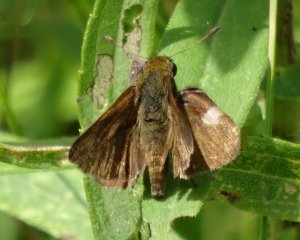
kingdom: Animalia
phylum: Arthropoda
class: Insecta
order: Lepidoptera
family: Hesperiidae
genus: Euphyes
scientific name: Euphyes vestris
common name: Dun Skipper
